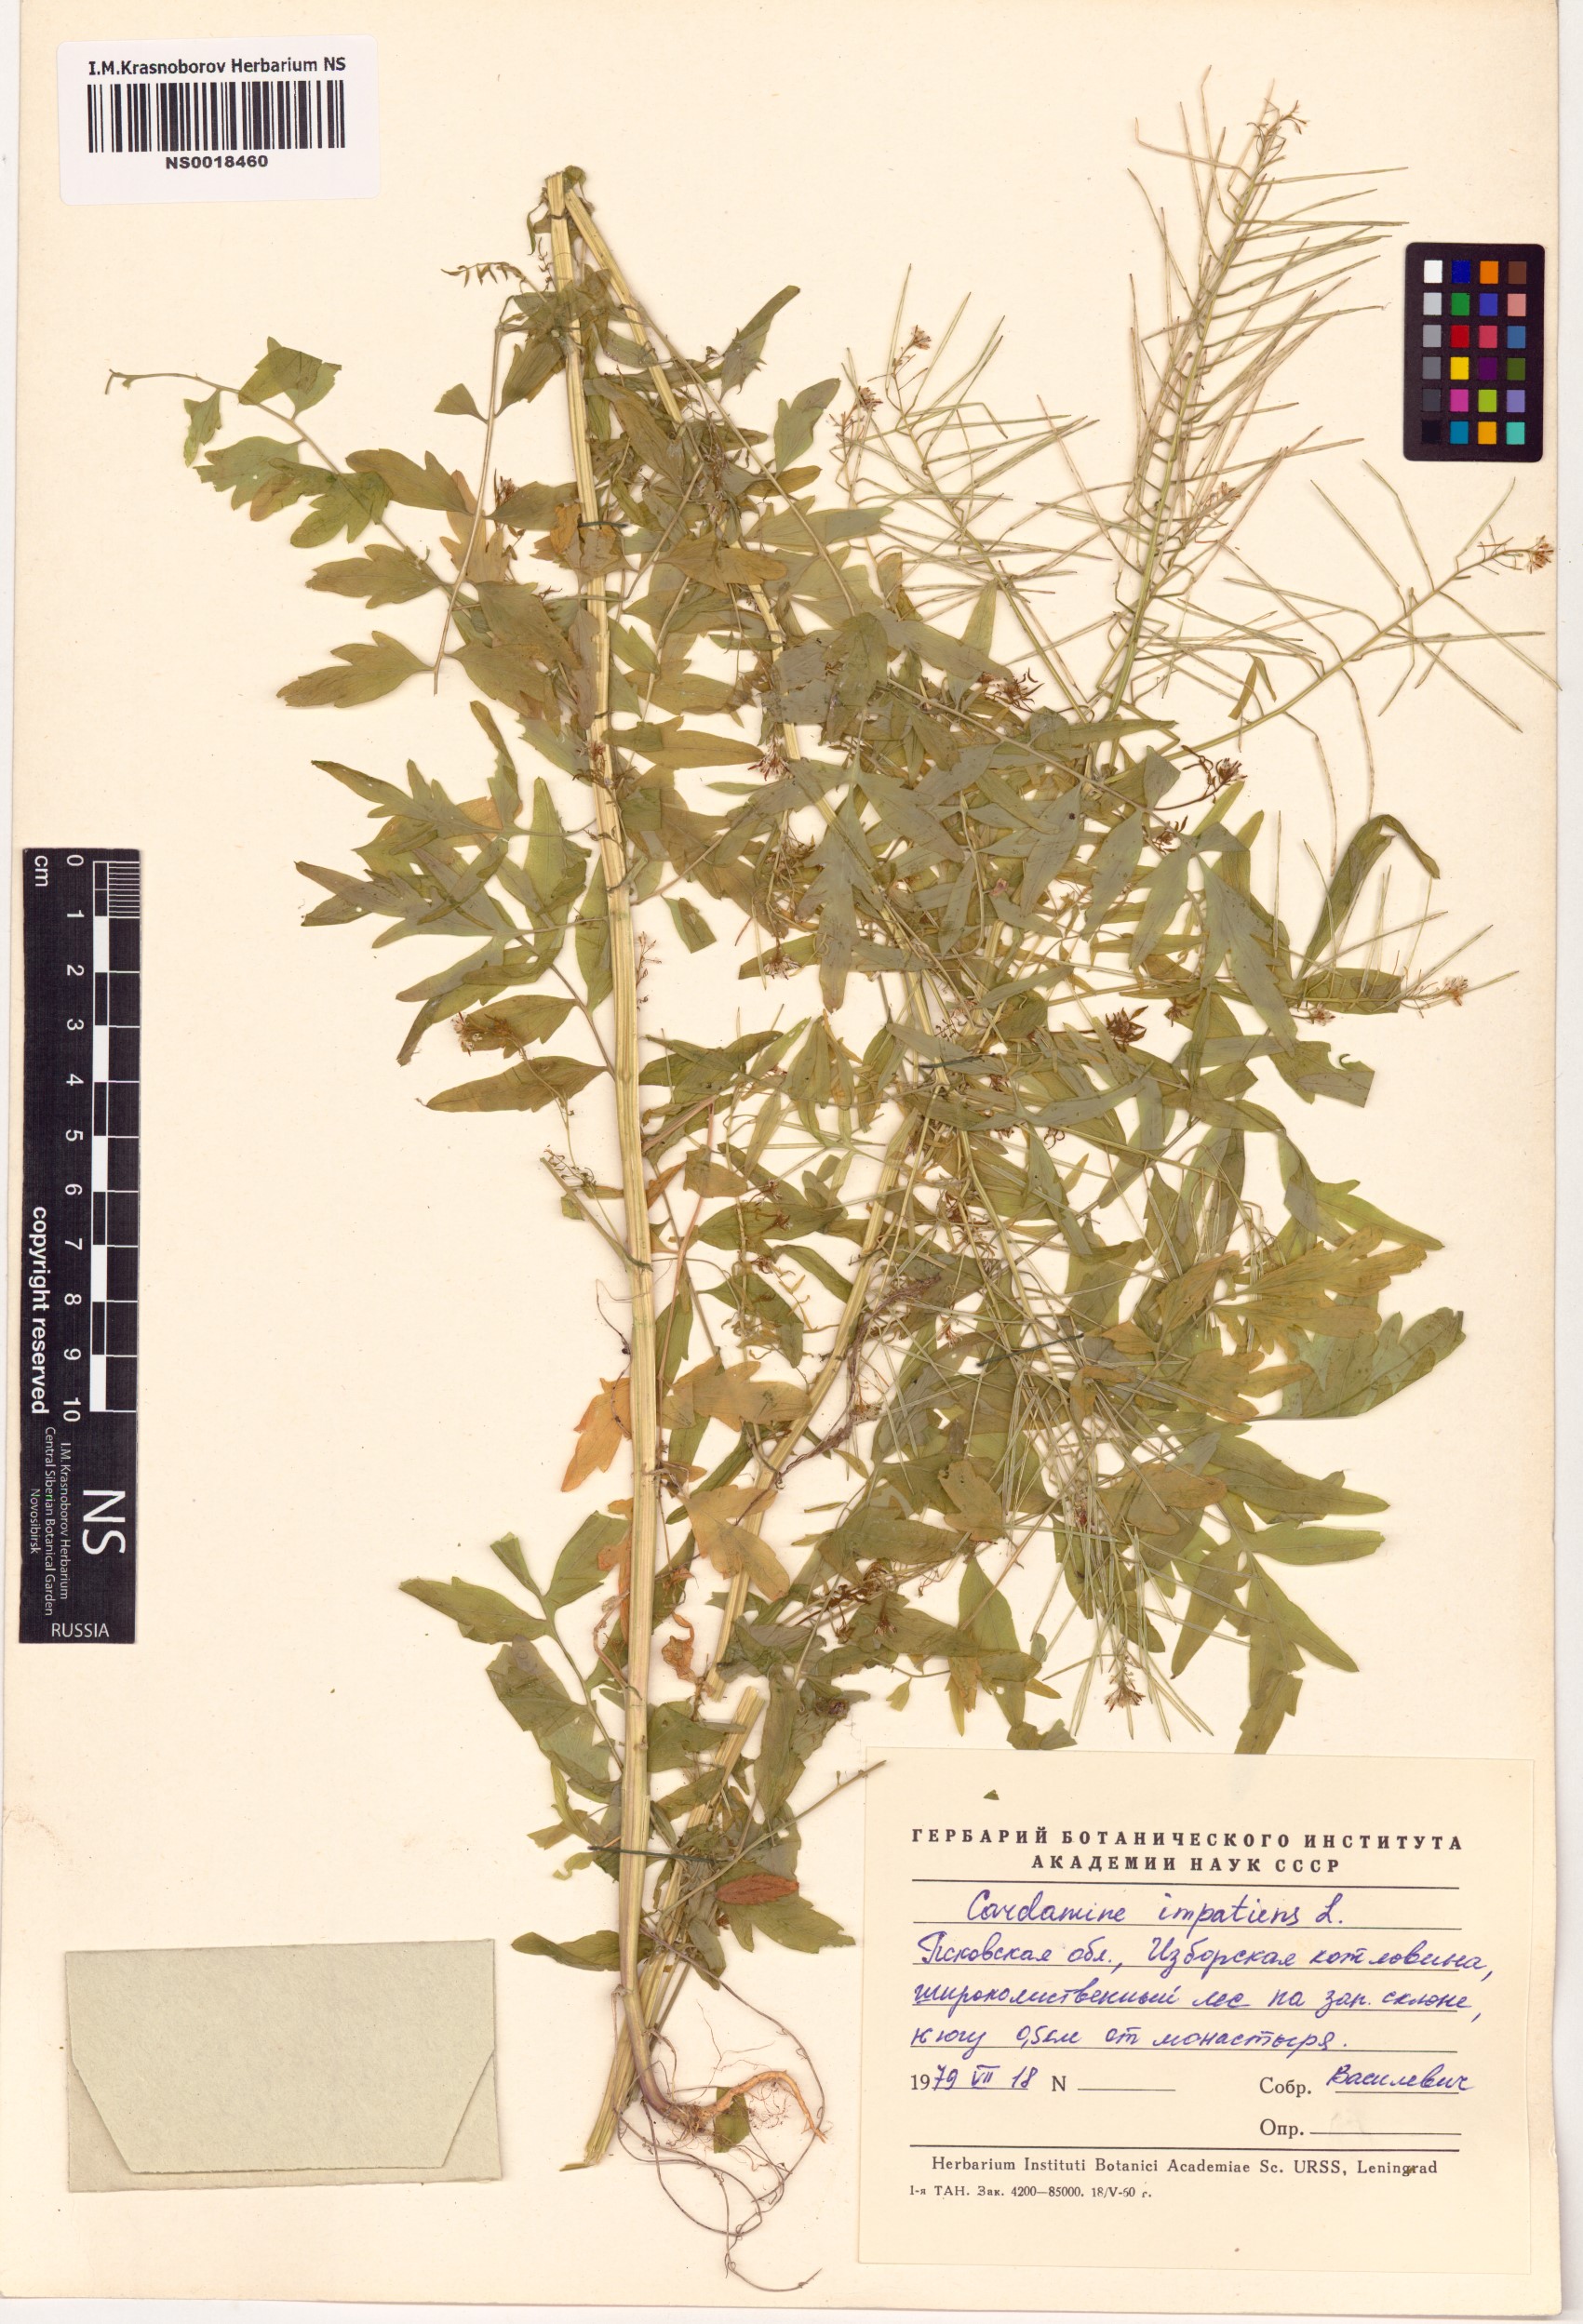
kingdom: Plantae
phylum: Tracheophyta
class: Magnoliopsida
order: Brassicales
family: Brassicaceae
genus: Cardamine
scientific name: Cardamine impatiens
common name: Narrow-leaved bitter-cress
